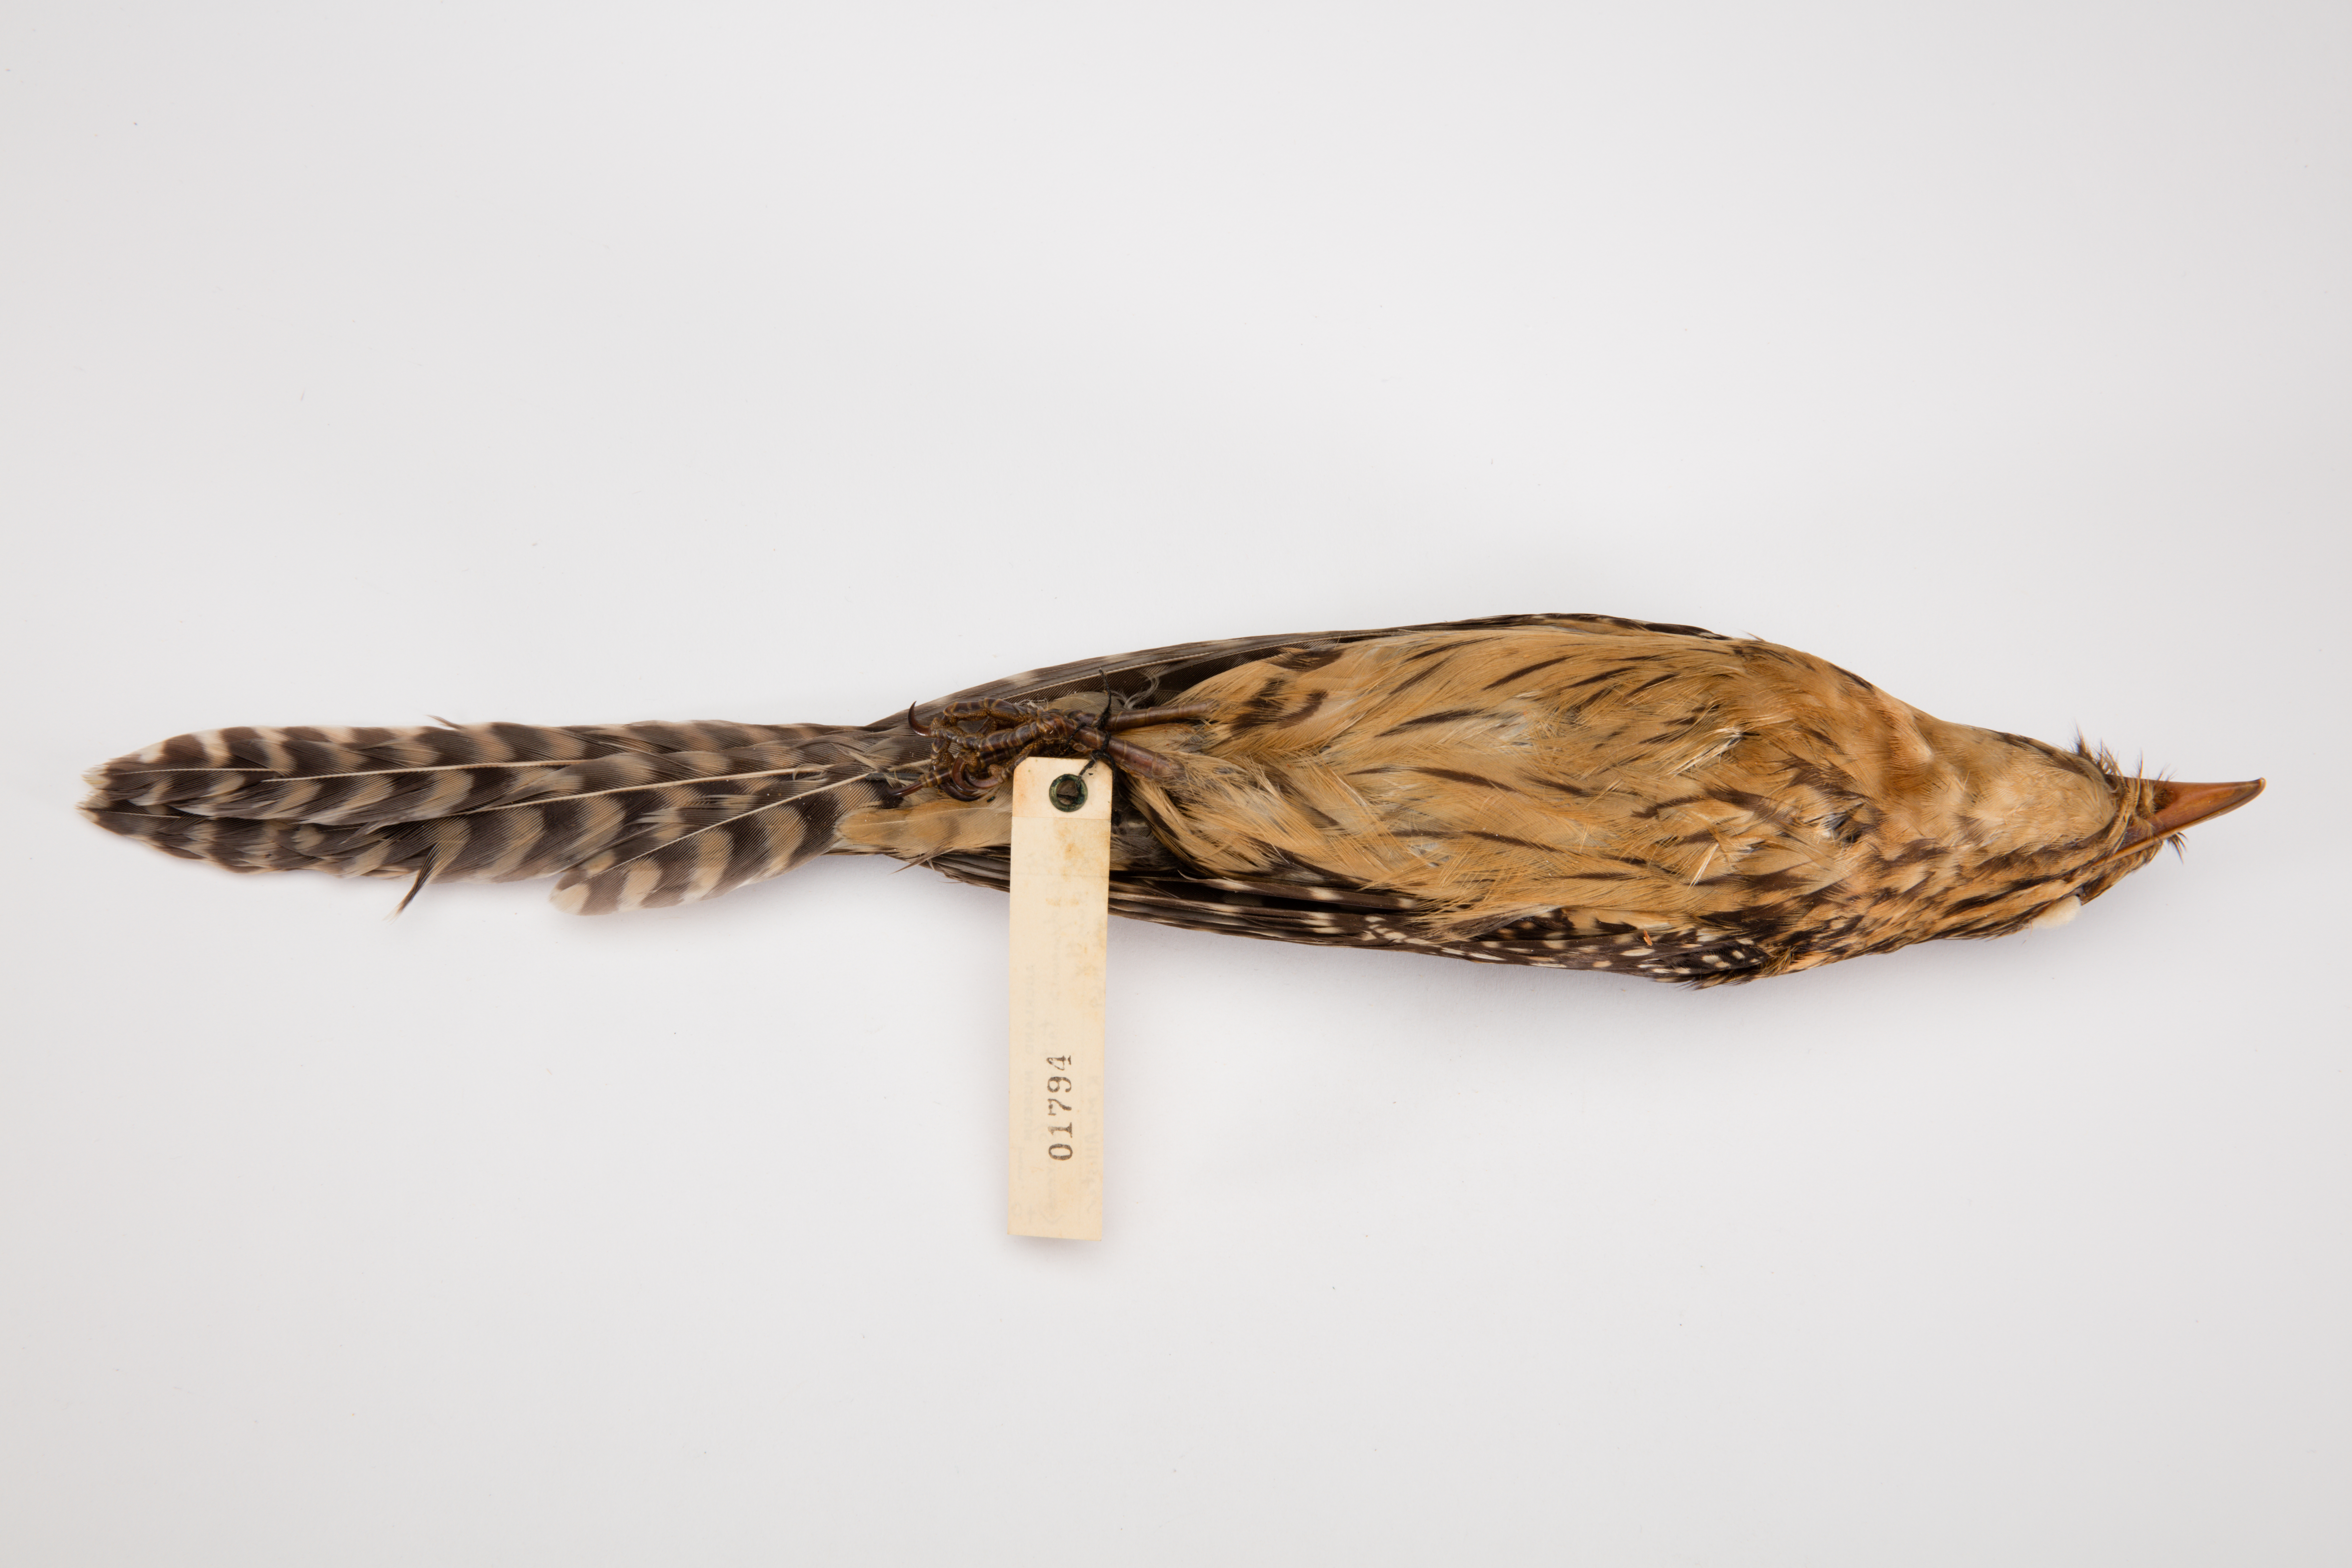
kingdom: Animalia
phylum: Chordata
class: Aves
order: Cuculiformes
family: Cuculidae
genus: Urodynamis
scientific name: Urodynamis taitensis
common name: Long-tailed koel
